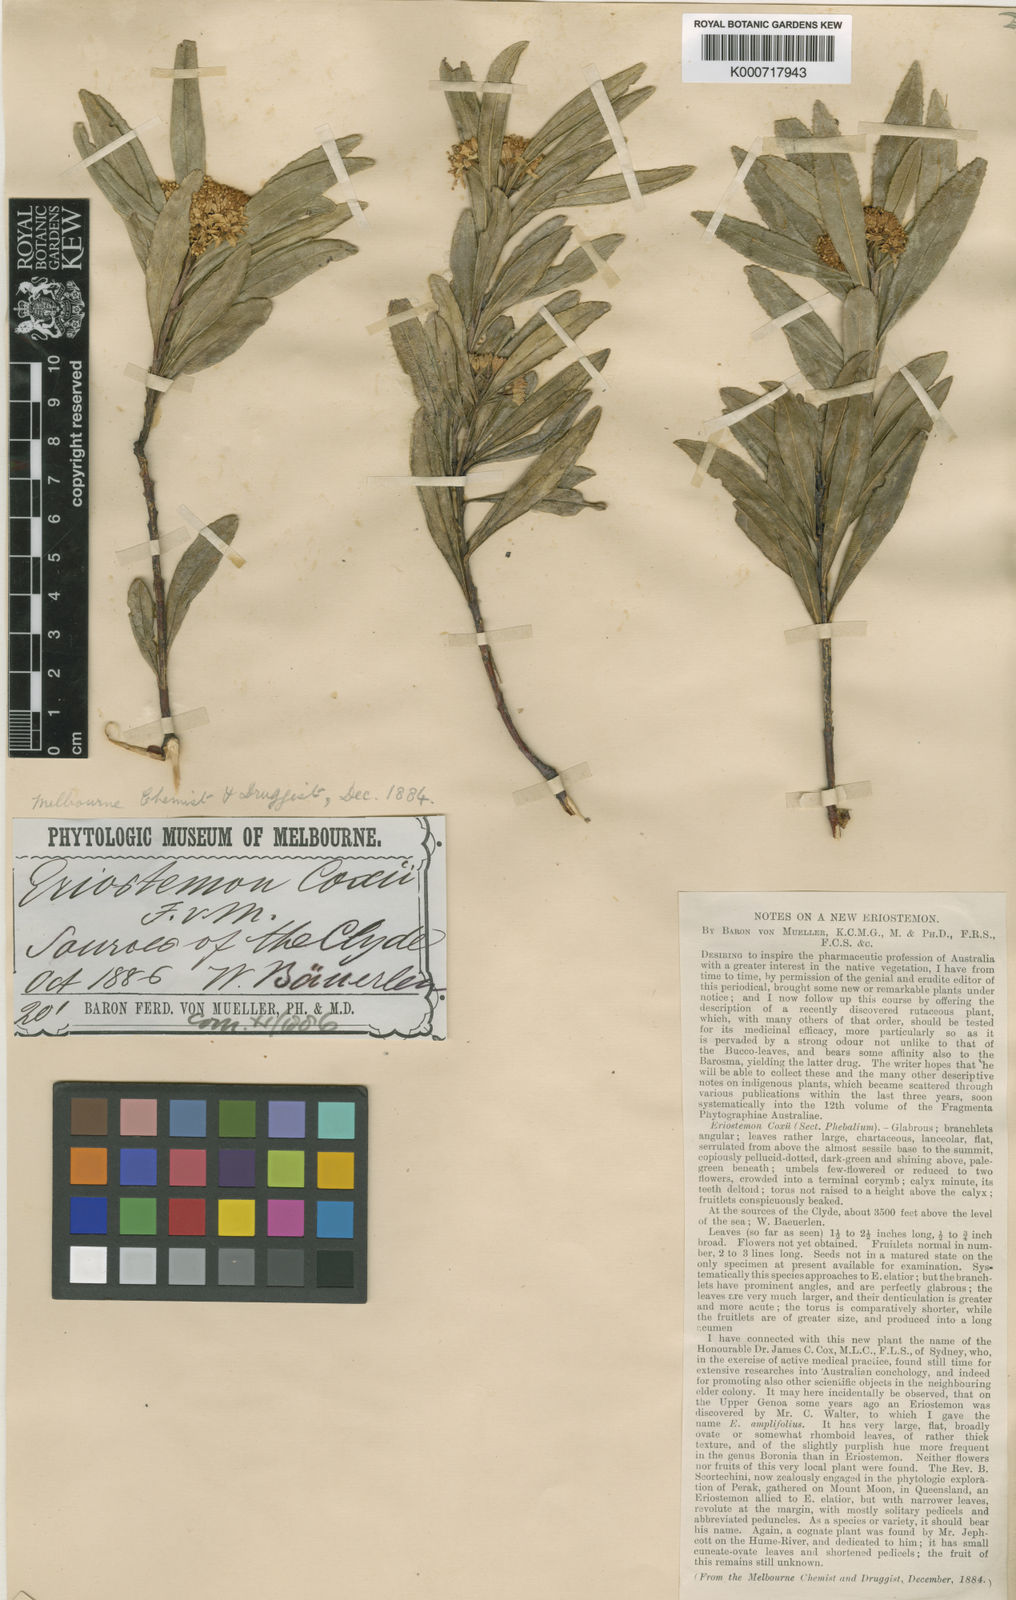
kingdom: Plantae
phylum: Tracheophyta
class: Magnoliopsida
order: Sapindales
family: Rutaceae
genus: Leionema
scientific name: Leionema coxii
